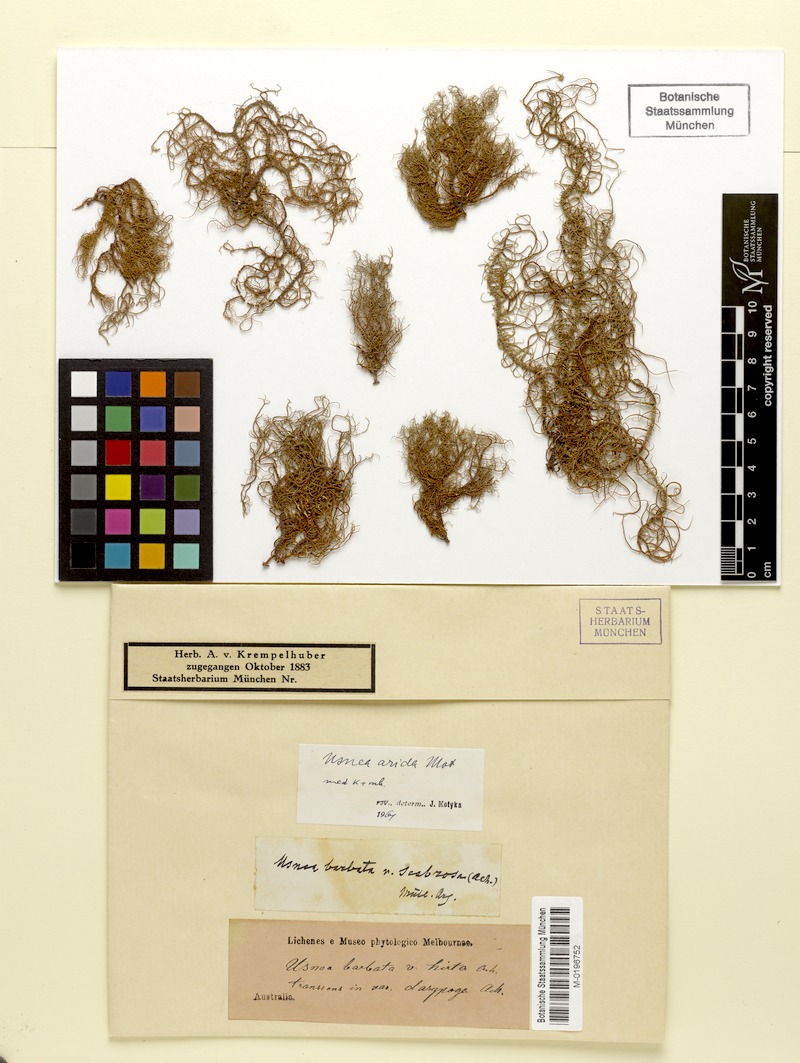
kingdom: Fungi
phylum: Ascomycota
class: Lecanoromycetes
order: Lecanorales
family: Parmeliaceae
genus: Usnea
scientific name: Usnea rubrotincta
